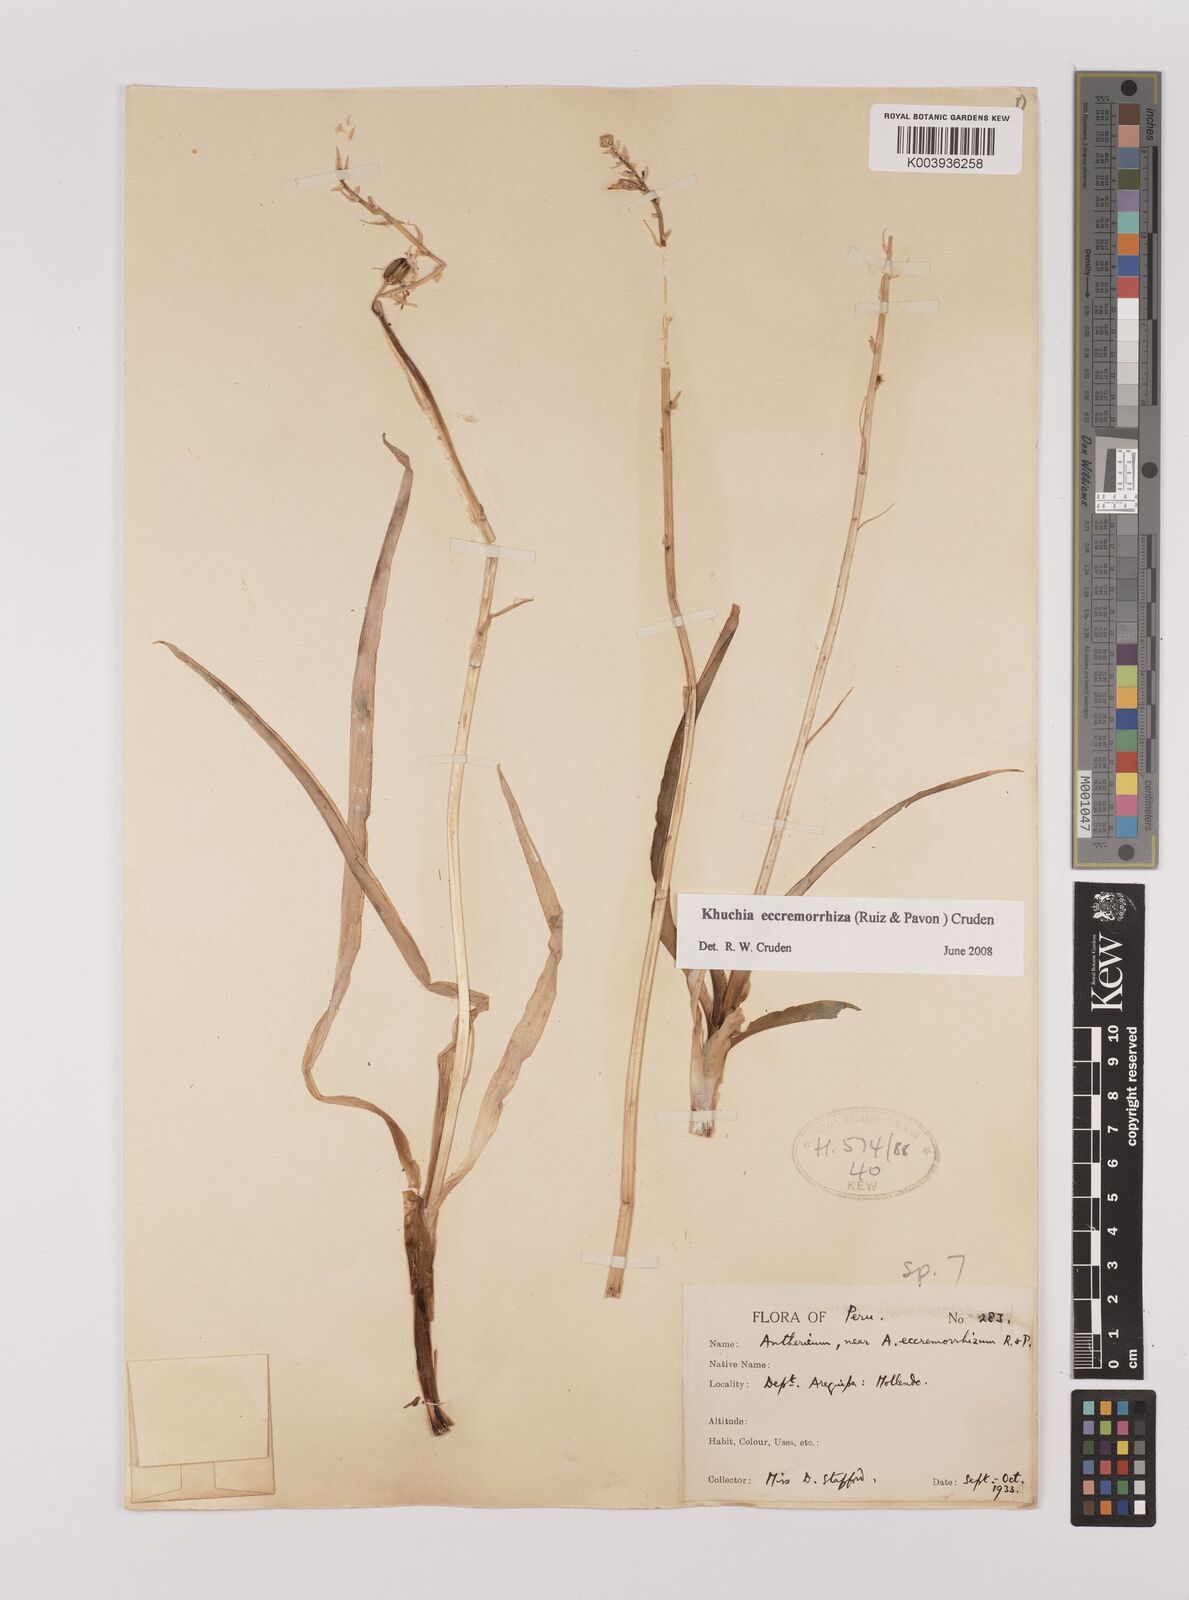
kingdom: Plantae
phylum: Tracheophyta
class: Liliopsida
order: Asparagales
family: Asparagaceae
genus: Echeandia
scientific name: Echeandia
